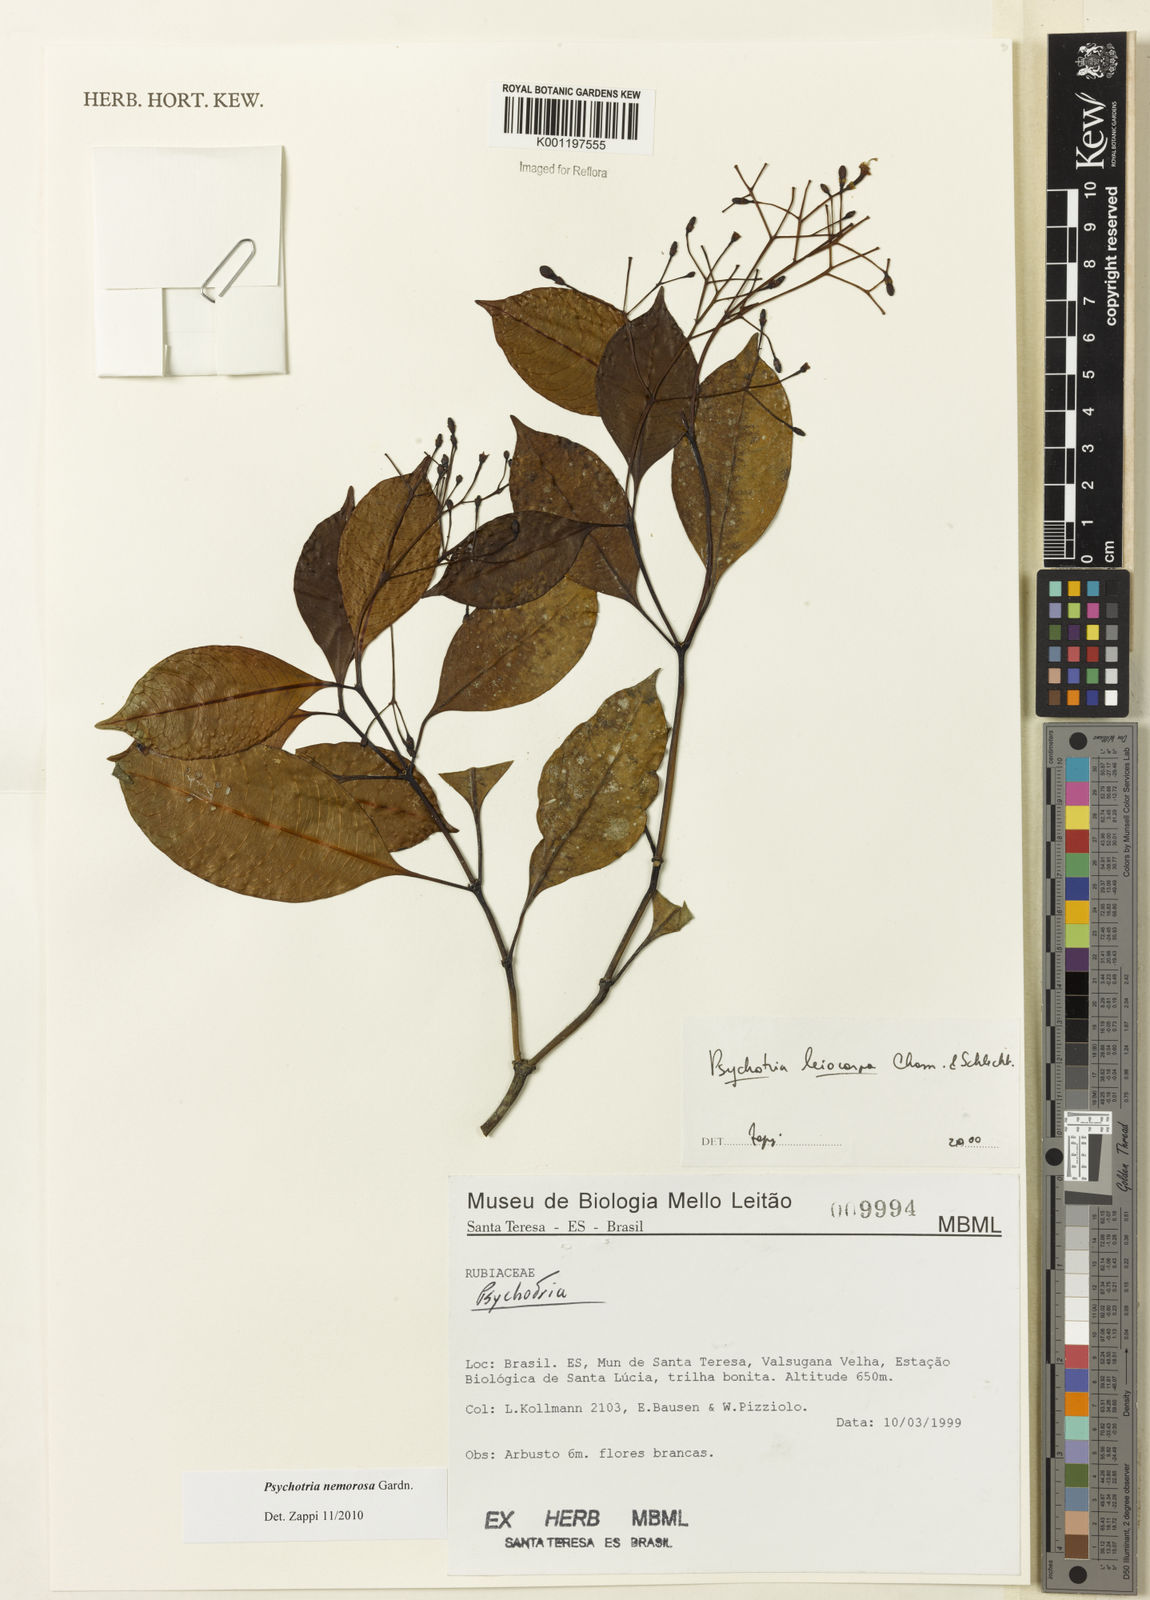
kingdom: Plantae
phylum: Tracheophyta
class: Magnoliopsida
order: Gentianales
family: Rubiaceae
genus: Psychotria
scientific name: Psychotria nemorosa
